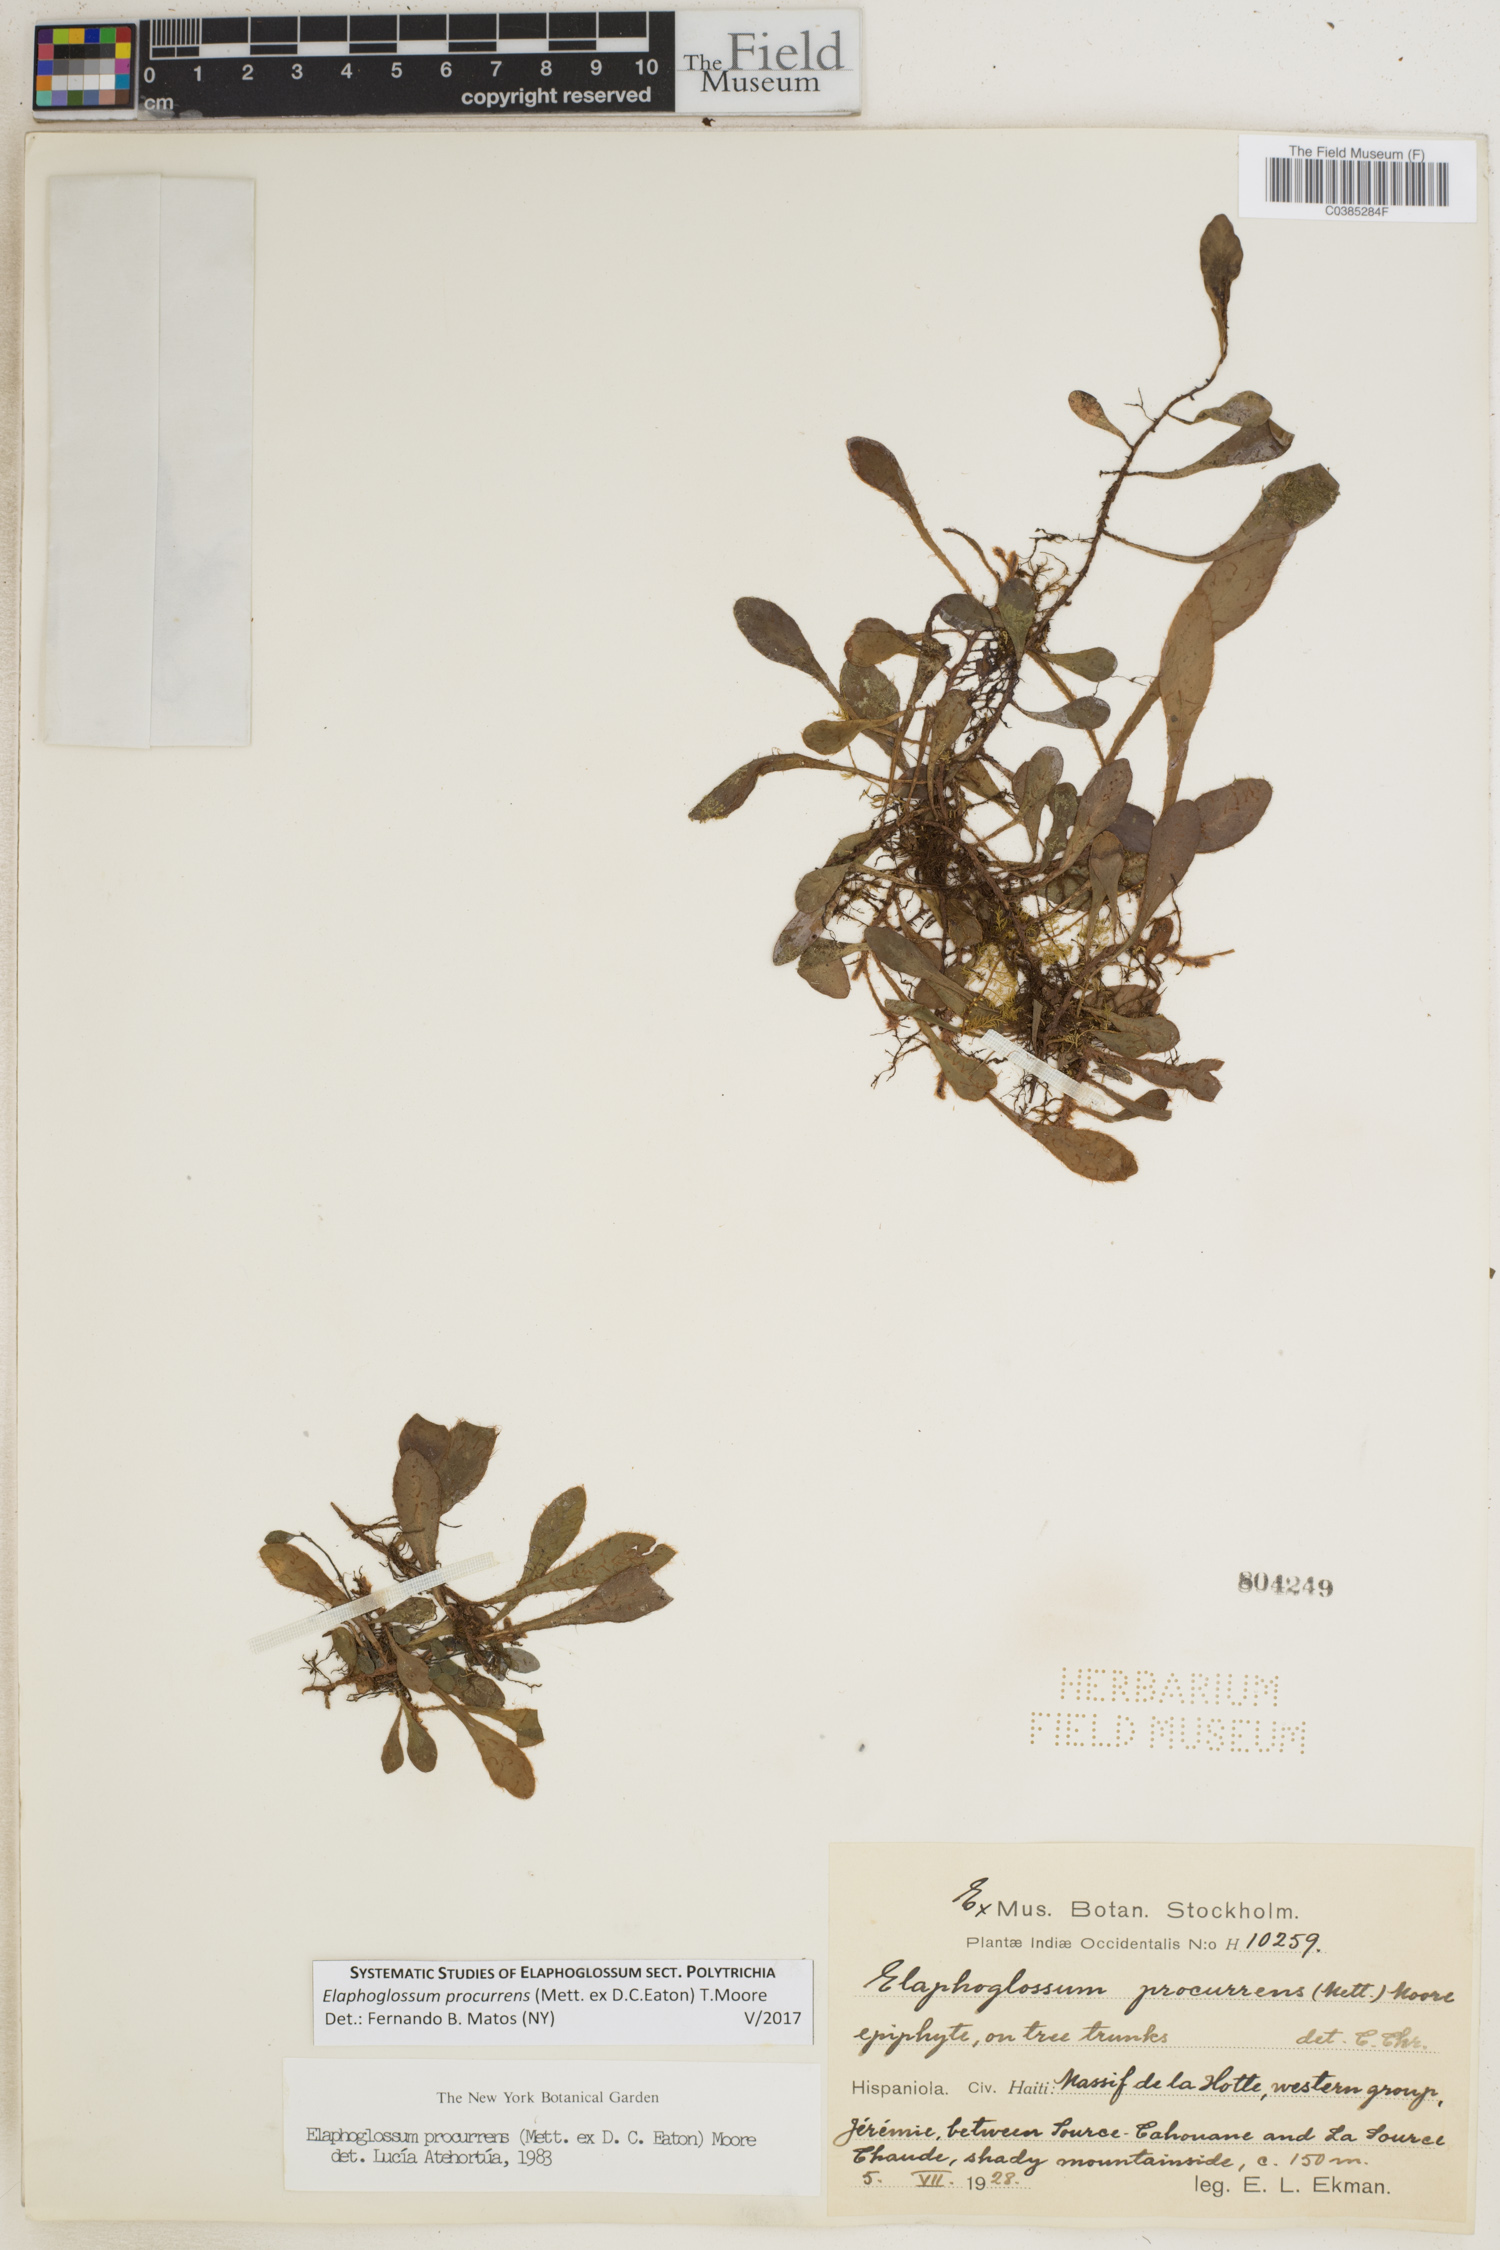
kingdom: Plantae
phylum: Tracheophyta
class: Polypodiopsida
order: Polypodiales
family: Dryopteridaceae
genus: Elaphoglossum
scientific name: Elaphoglossum procurrens
